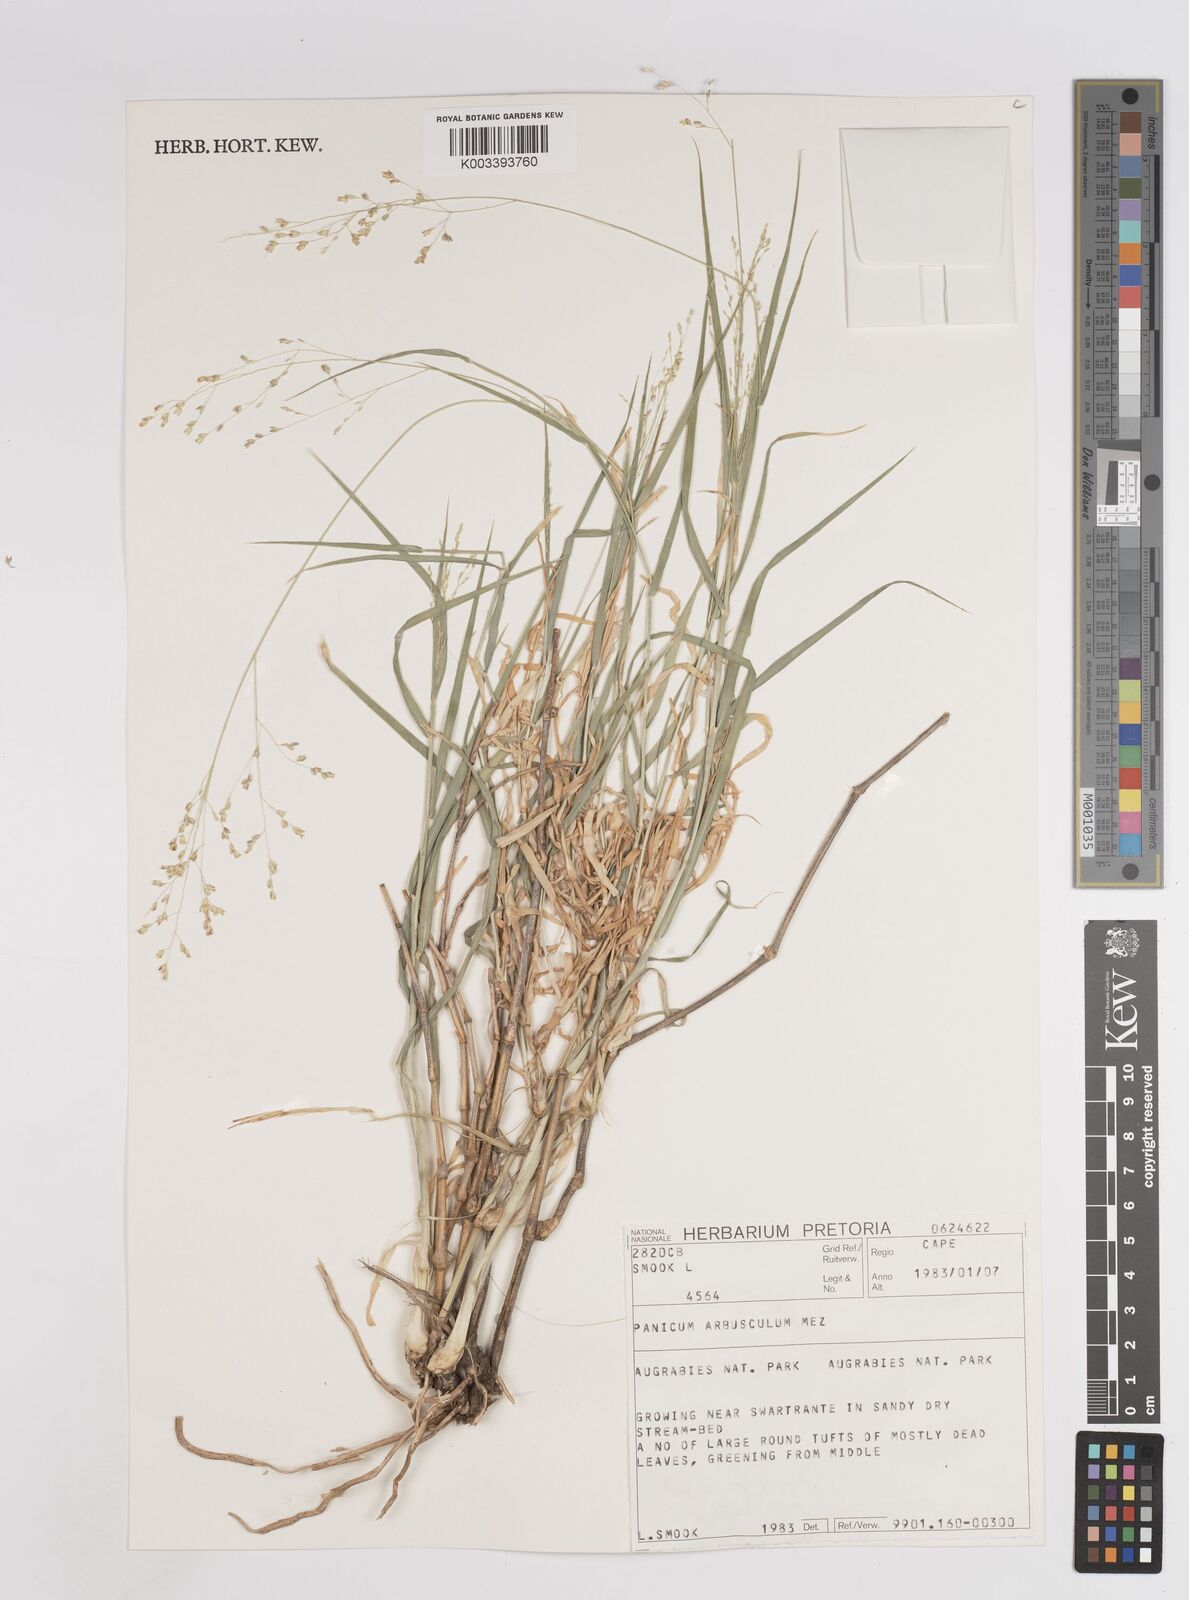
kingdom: Plantae
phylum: Tracheophyta
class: Liliopsida
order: Poales
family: Poaceae
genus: Isachne
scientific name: Isachne rigens
